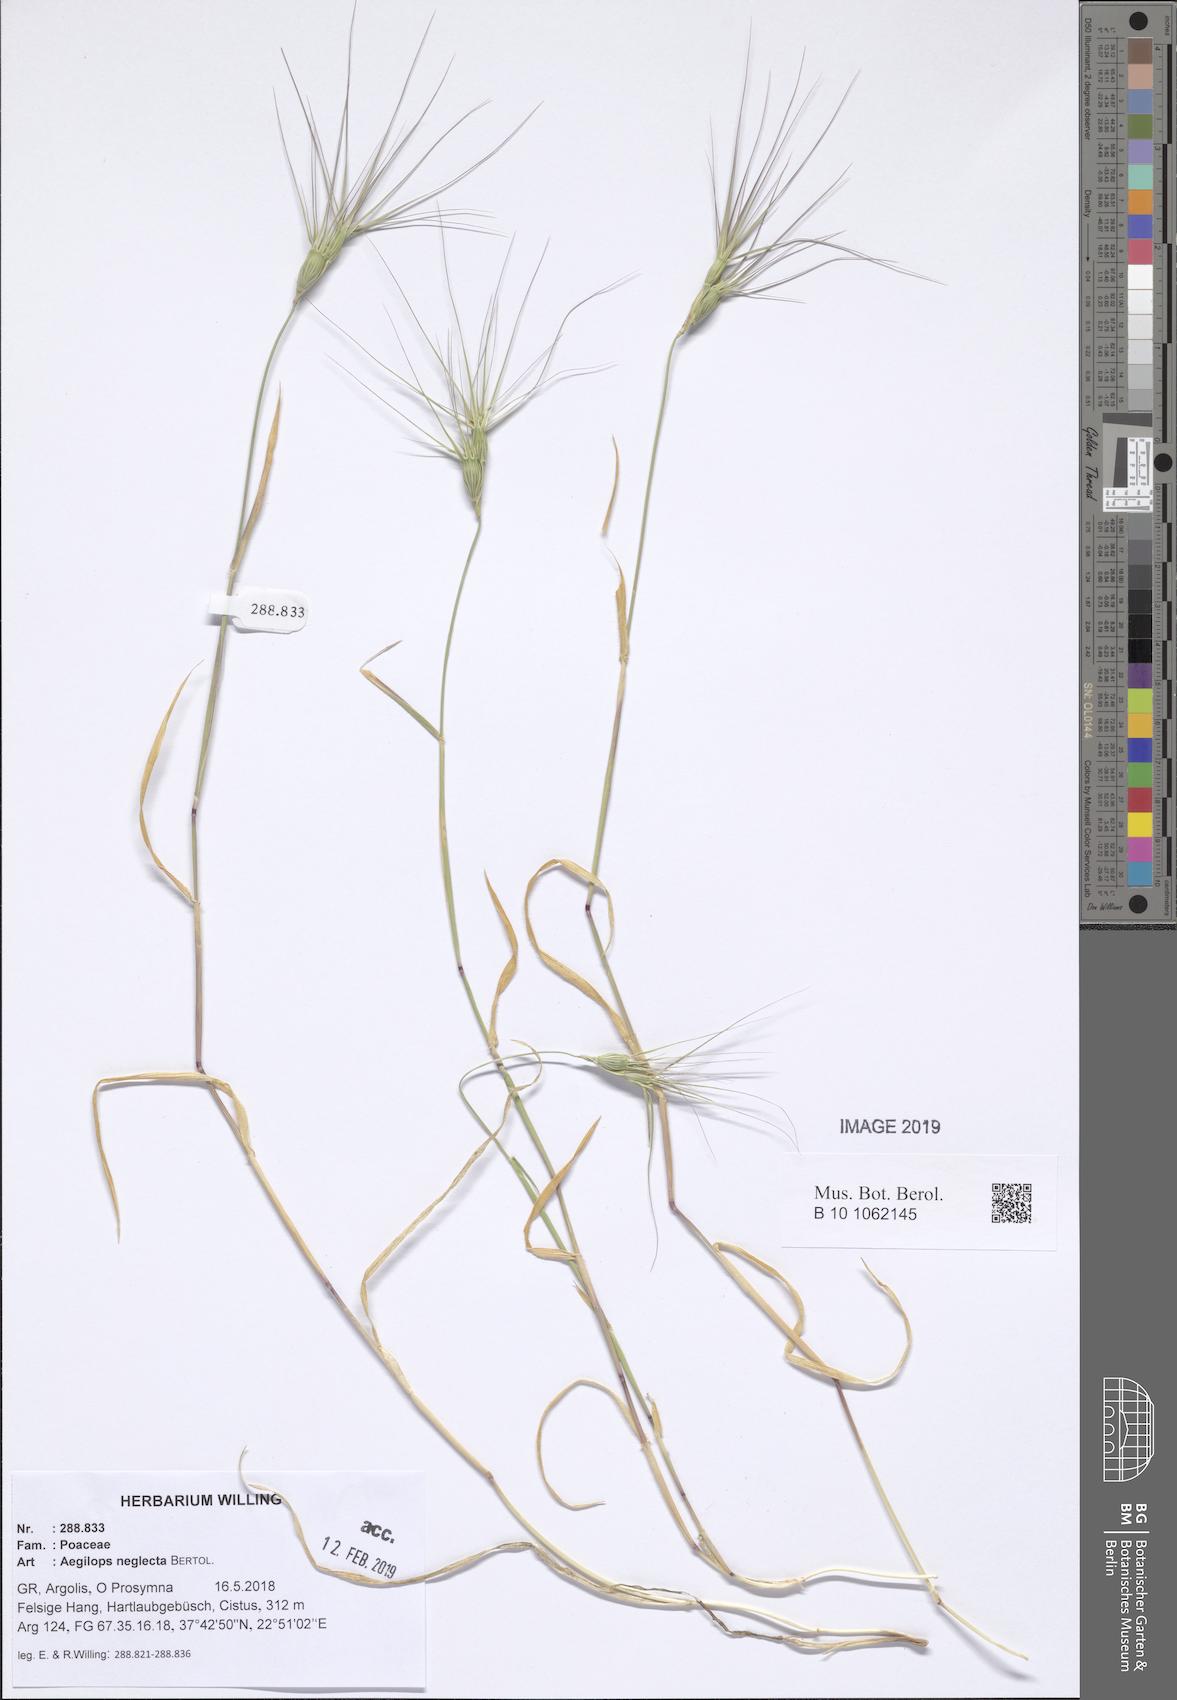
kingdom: Plantae
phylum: Tracheophyta
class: Liliopsida
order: Poales
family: Poaceae
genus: Aegilops
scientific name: Aegilops neglecta
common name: Three-awn goat grass
